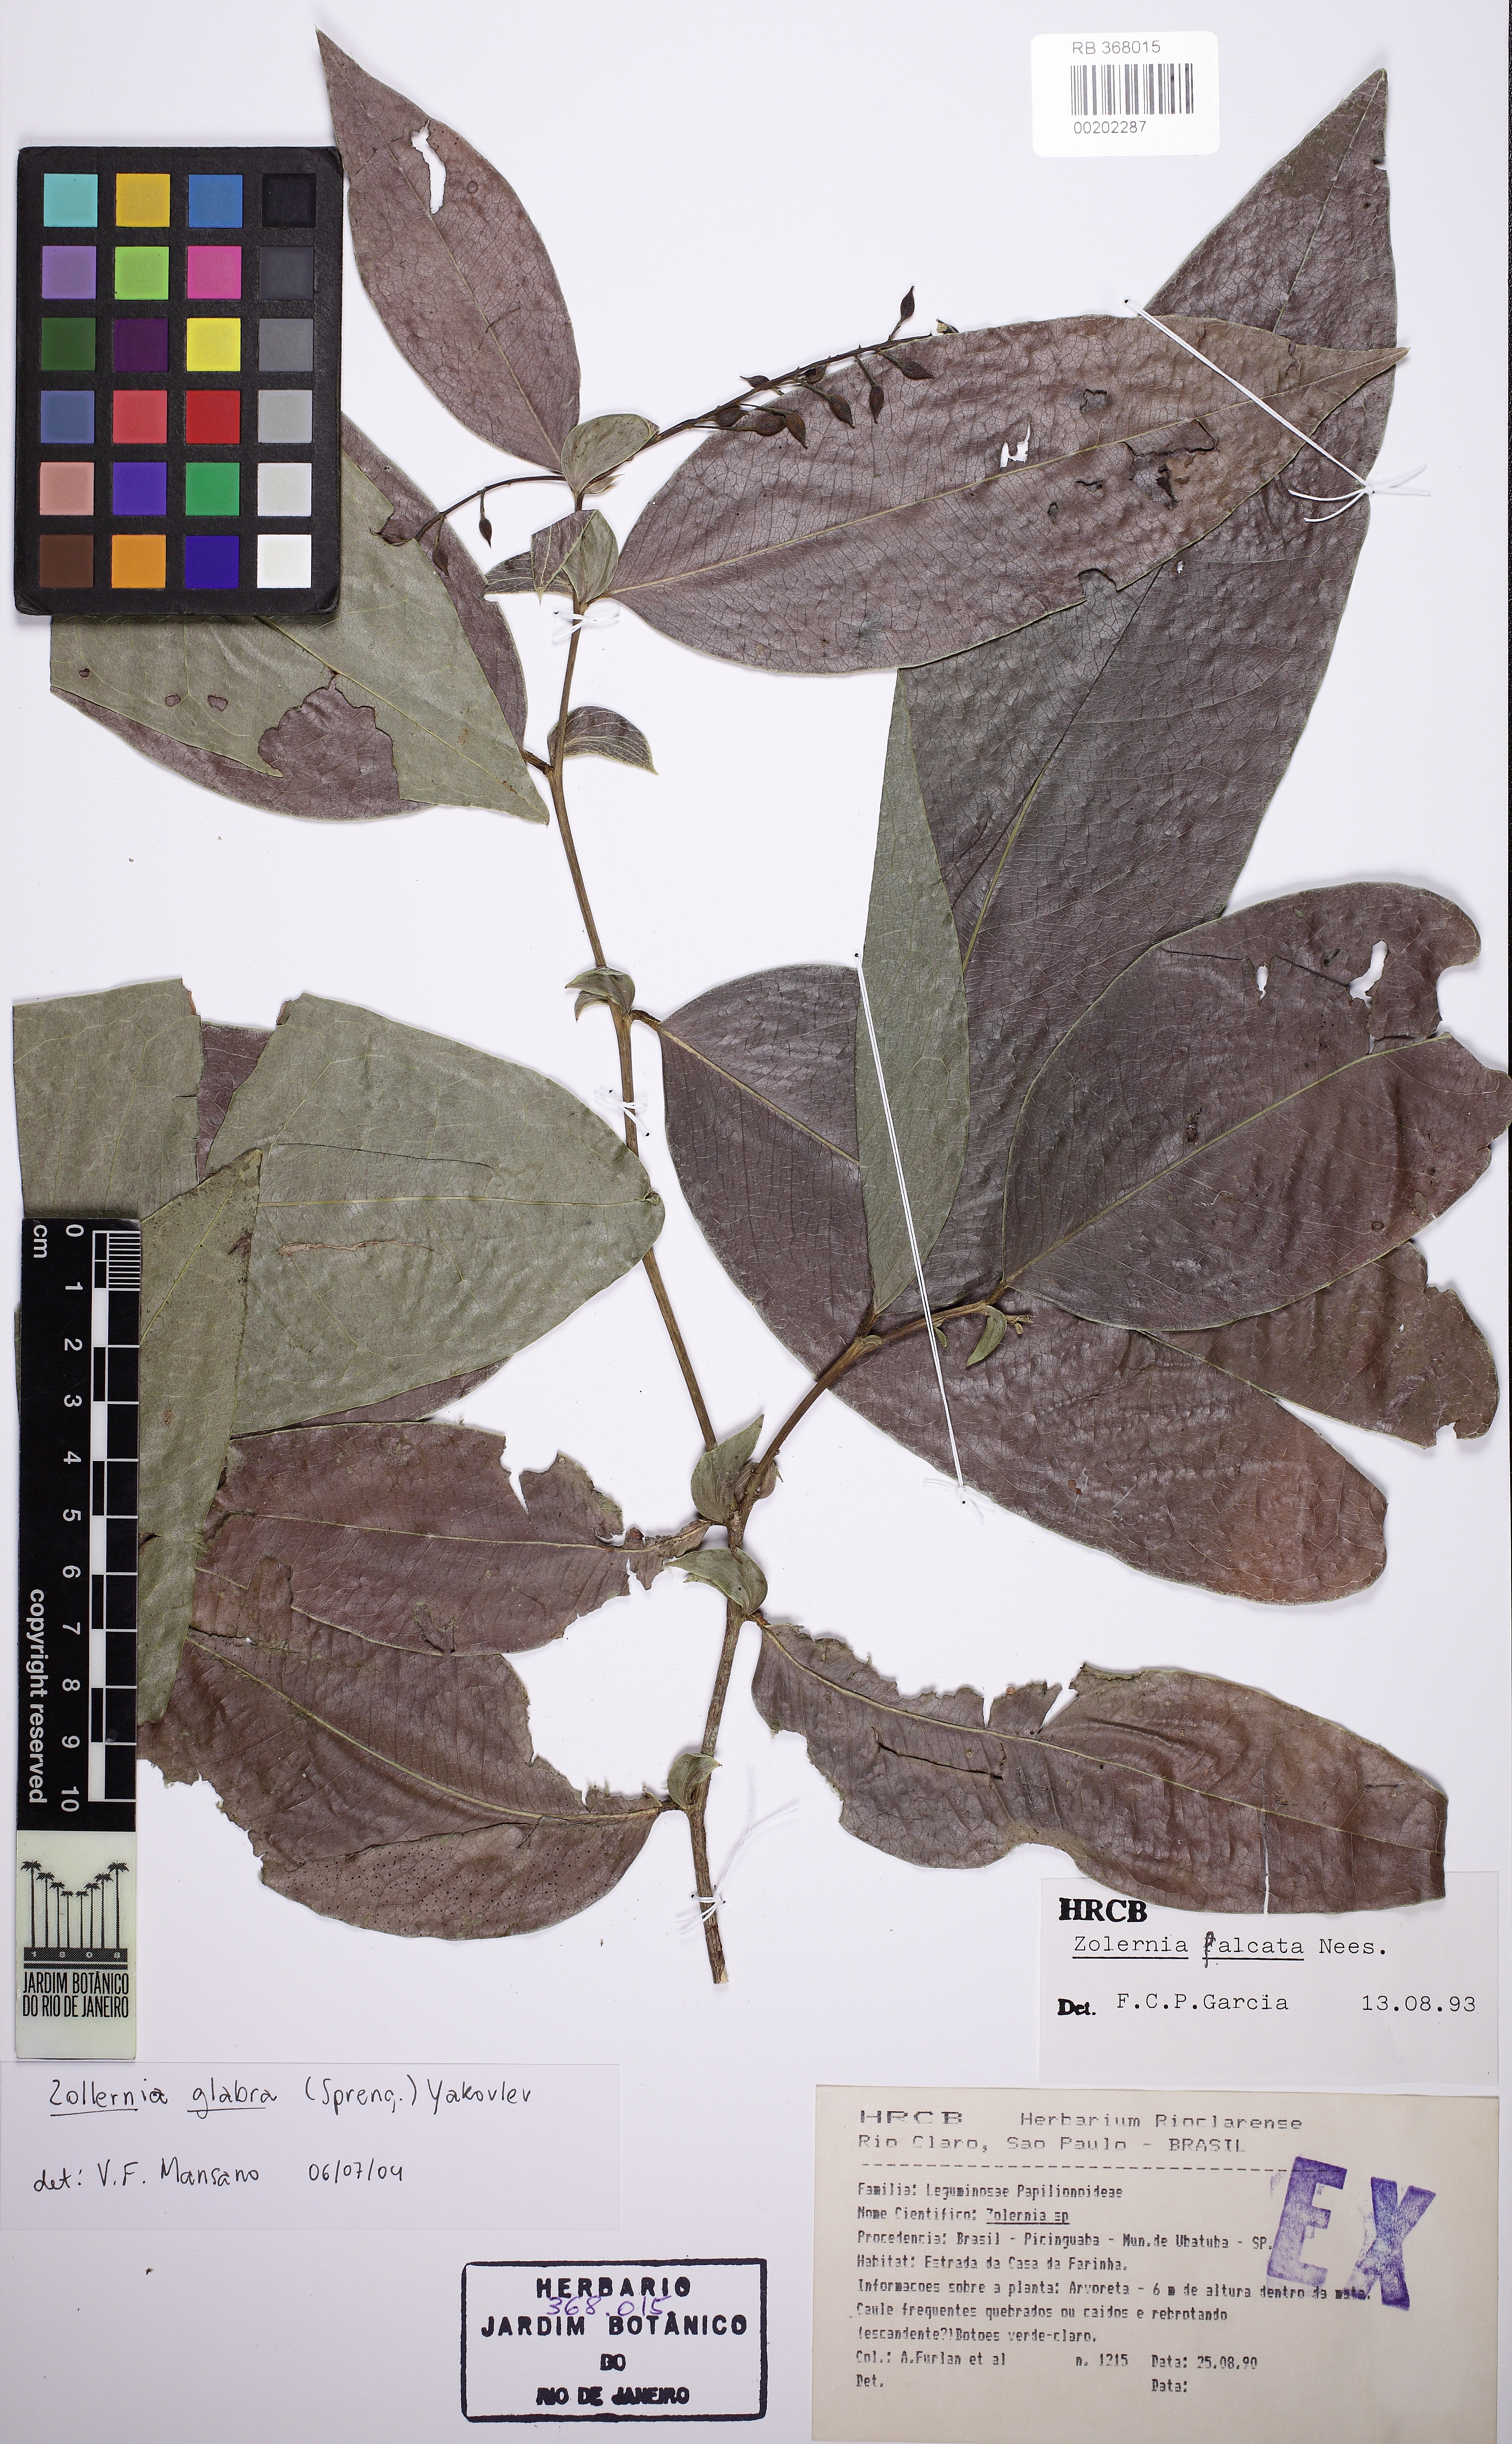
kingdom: Plantae
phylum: Tracheophyta
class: Magnoliopsida
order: Fabales
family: Fabaceae
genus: Zollernia
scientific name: Zollernia glabra
